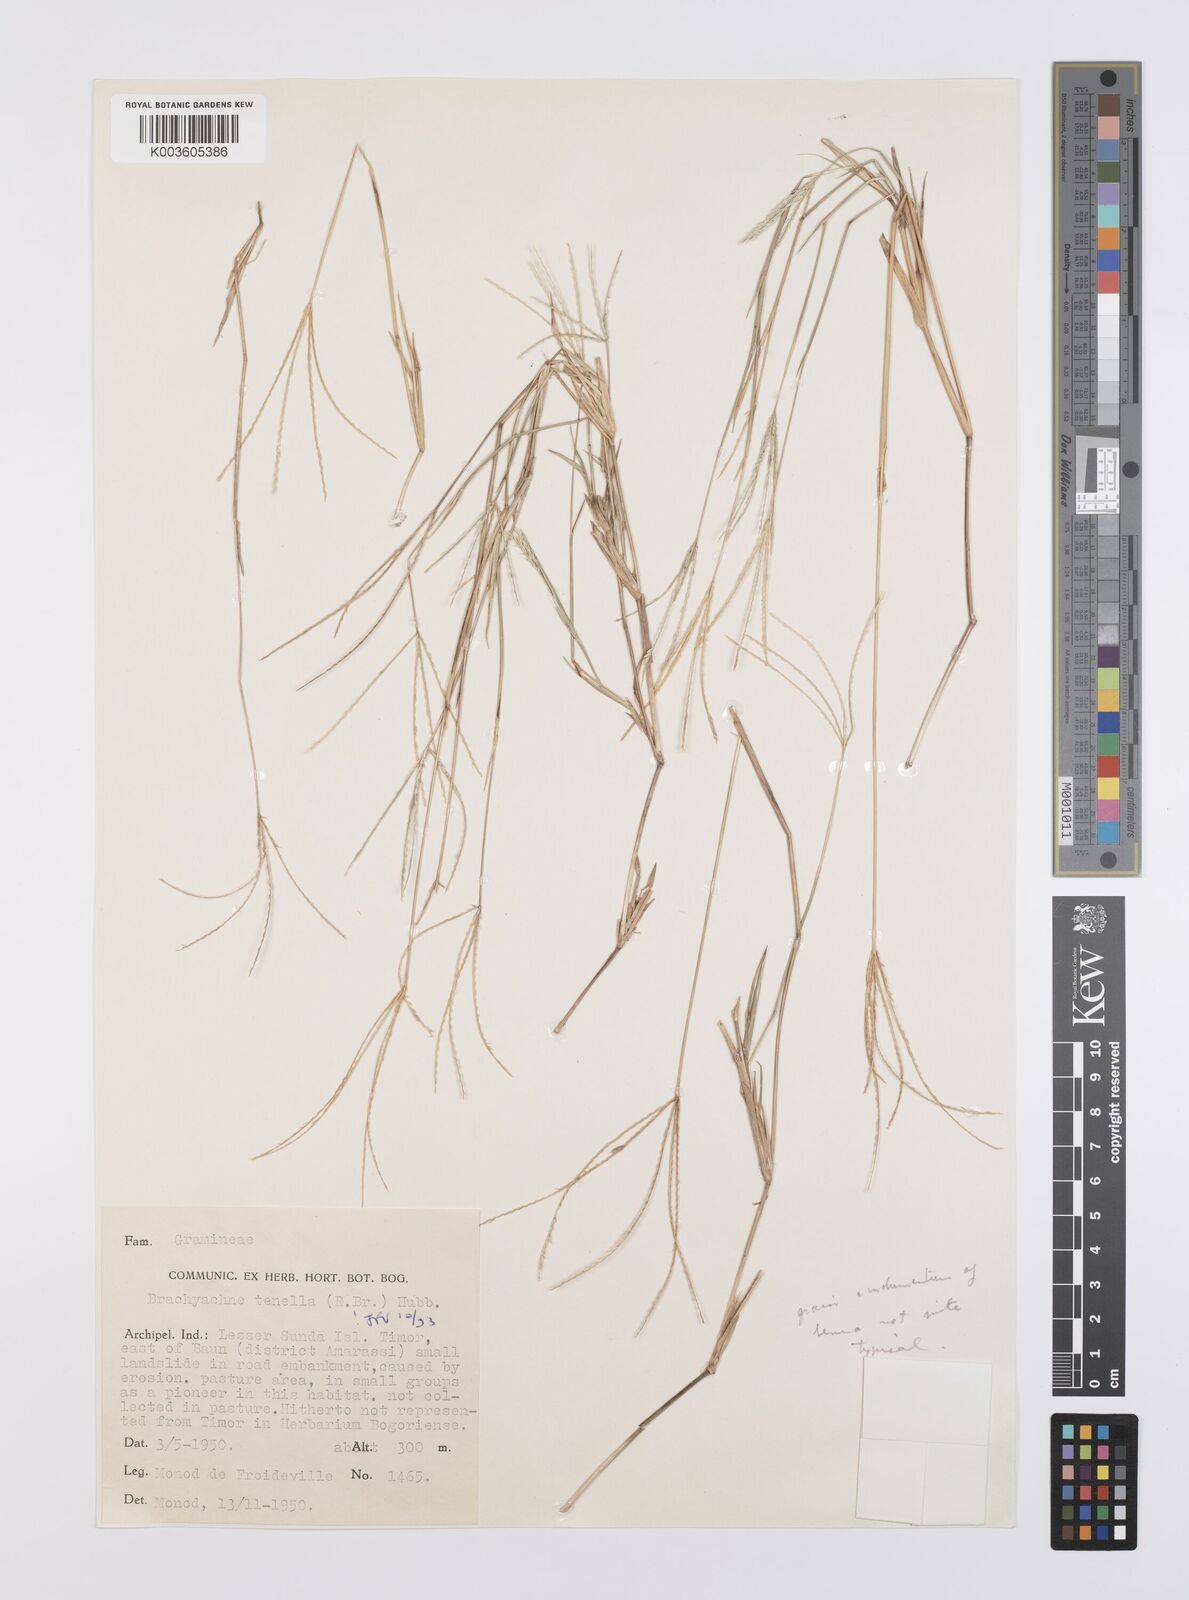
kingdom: Plantae
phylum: Tracheophyta
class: Liliopsida
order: Poales
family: Poaceae
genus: Cynodon
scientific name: Cynodon tenellus
